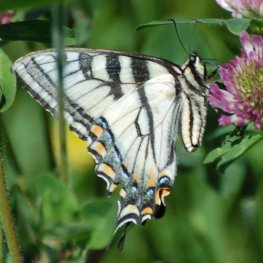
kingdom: Animalia
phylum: Arthropoda
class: Insecta
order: Lepidoptera
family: Papilionidae
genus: Pterourus
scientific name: Pterourus canadensis
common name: Canadian Tiger Swallowtail
